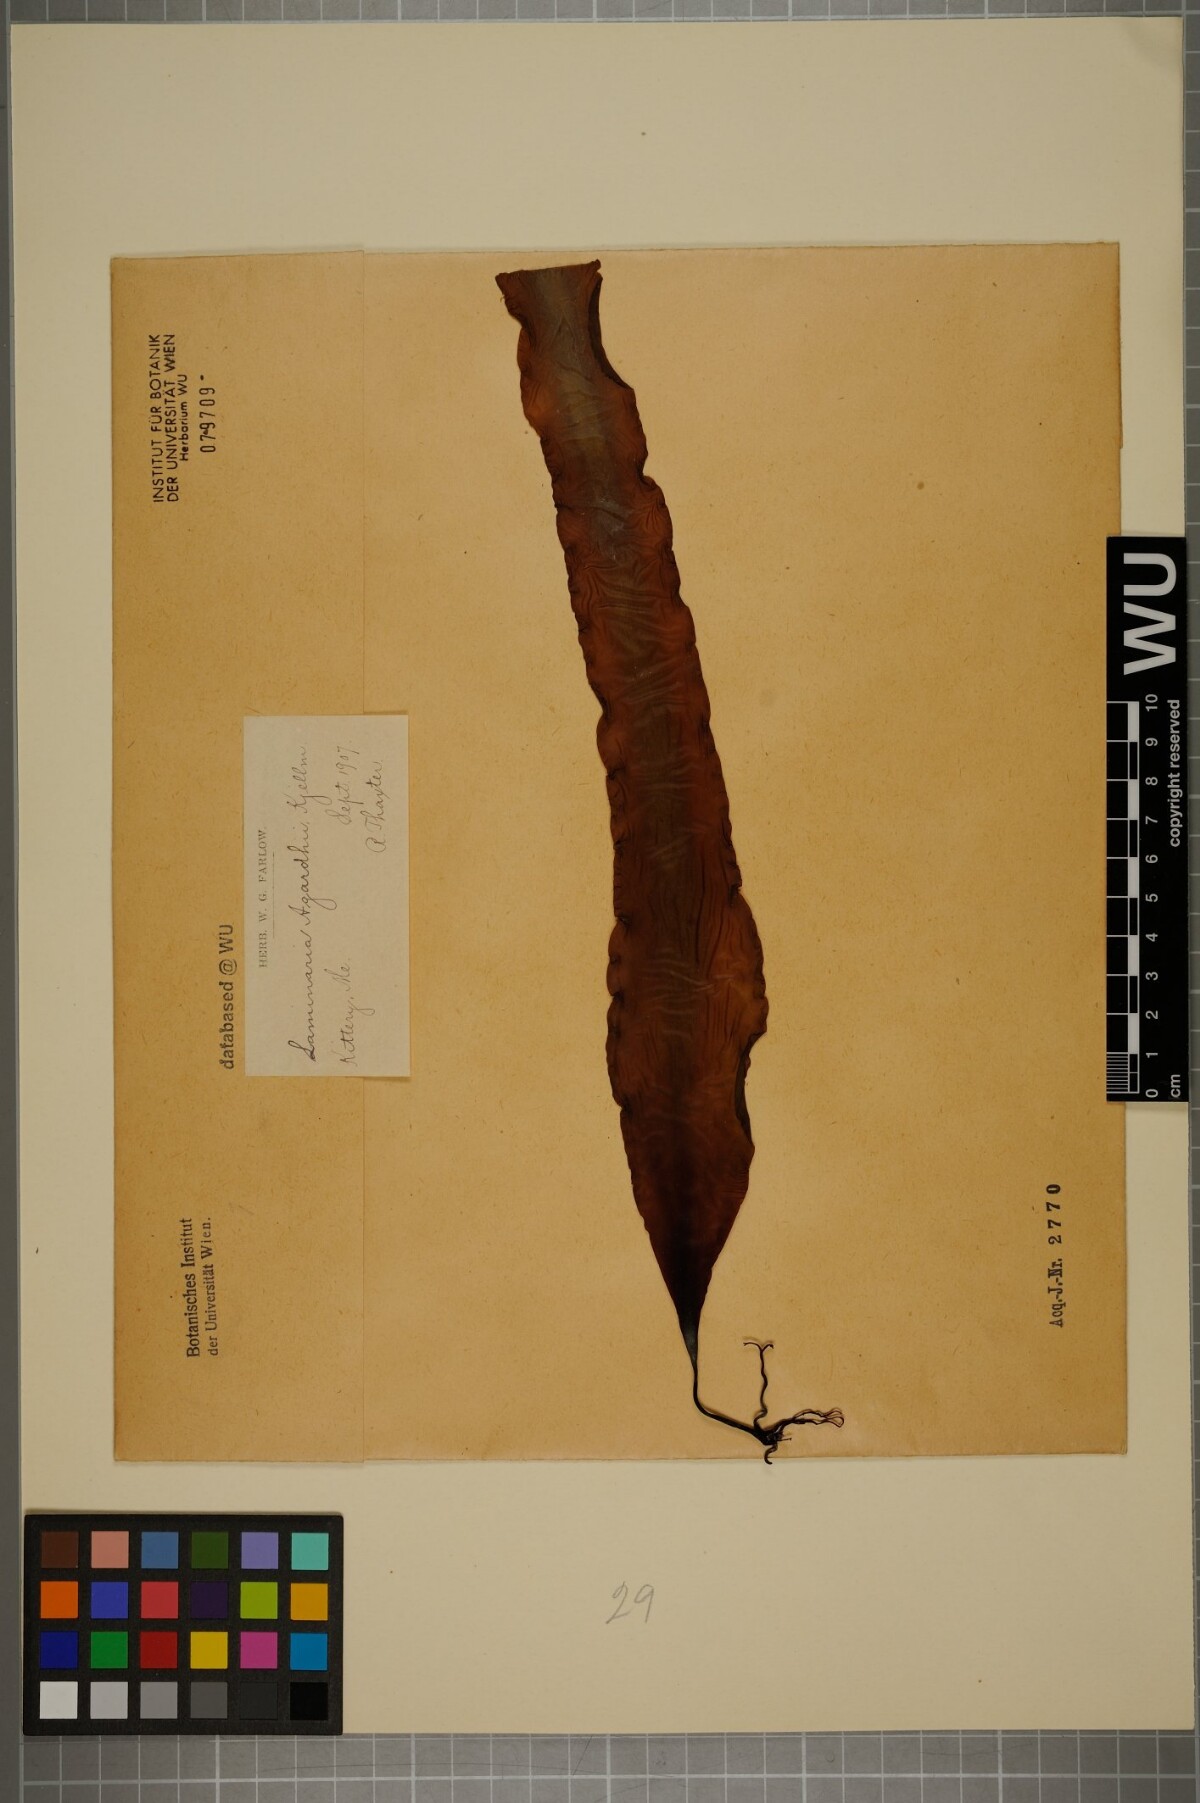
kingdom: Chromista
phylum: Ochrophyta
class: Phaeophyceae
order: Laminariales
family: Laminariaceae
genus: Saccharina
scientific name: Saccharina latissima
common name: Poor man's weather glass
